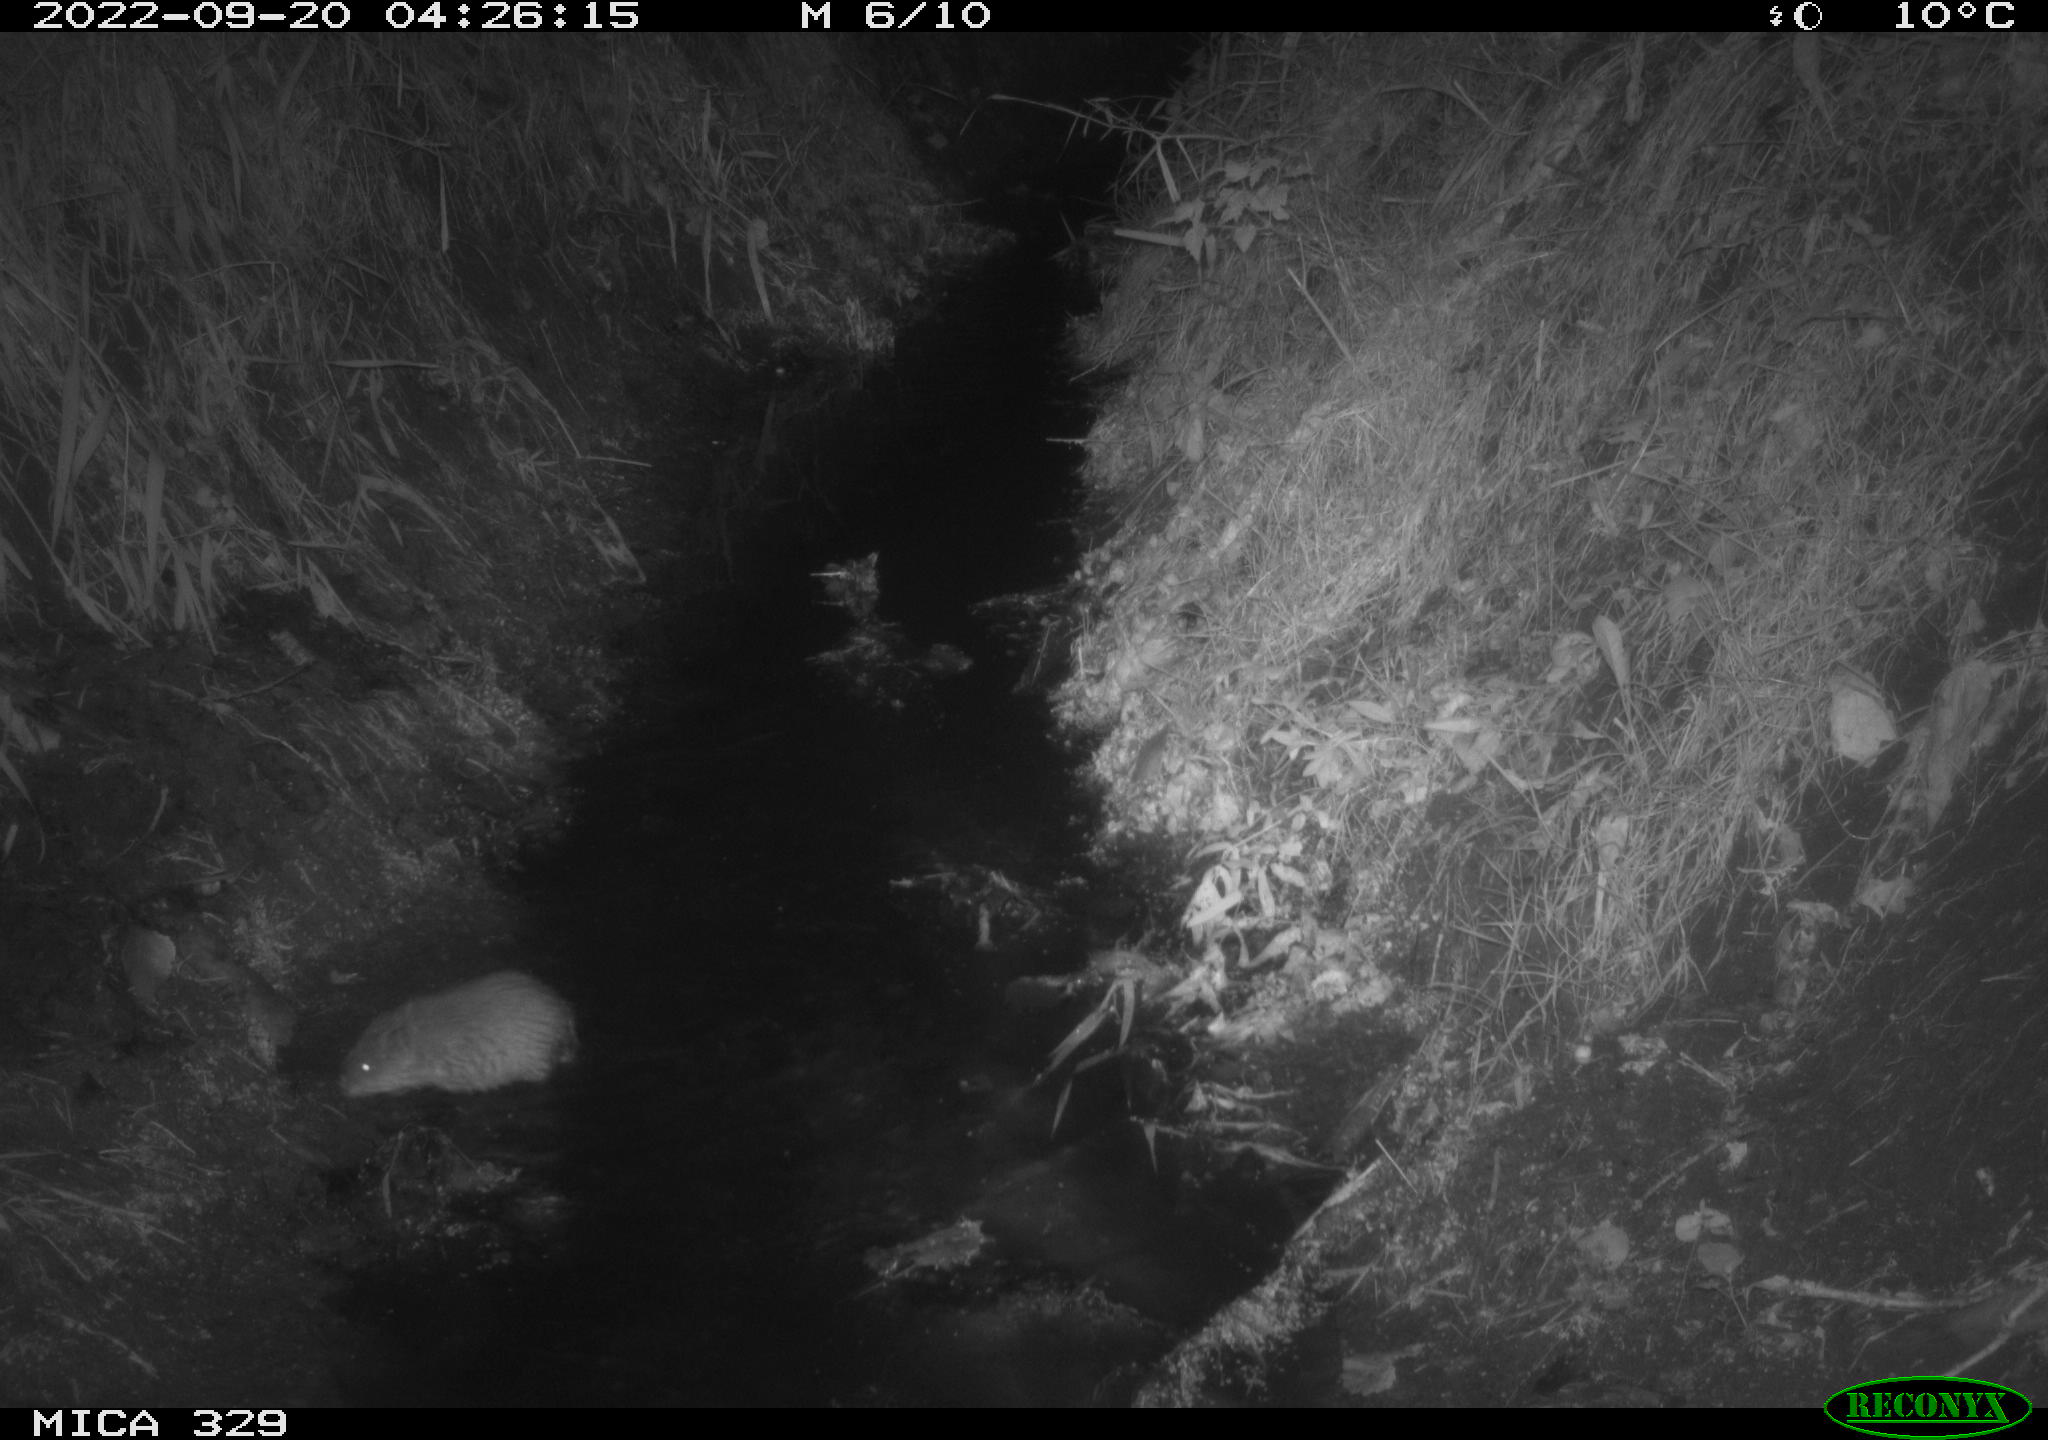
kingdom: Animalia
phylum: Chordata
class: Mammalia
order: Rodentia
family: Cricetidae
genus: Ondatra
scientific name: Ondatra zibethicus
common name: Muskrat
